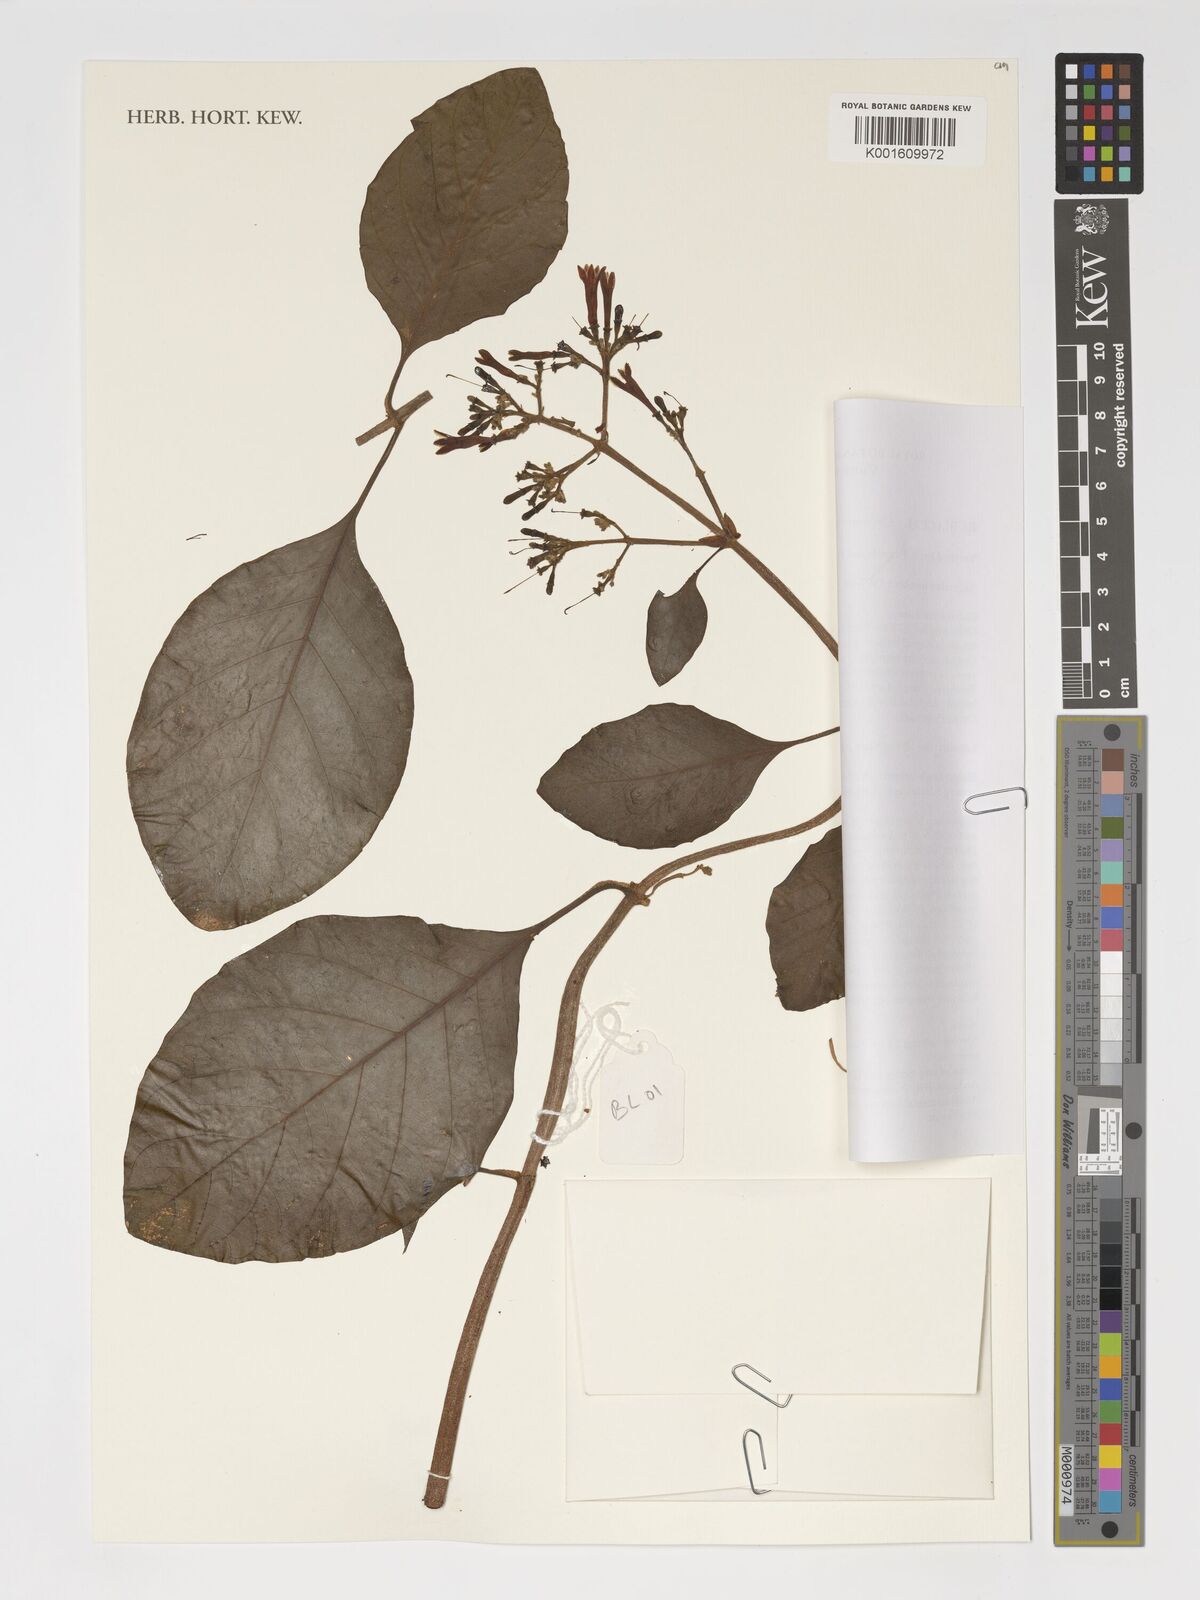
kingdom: Plantae
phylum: Tracheophyta
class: Magnoliopsida
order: Gentianales
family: Rubiaceae
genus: Cinchona
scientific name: Cinchona pubescens
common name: Quinine
